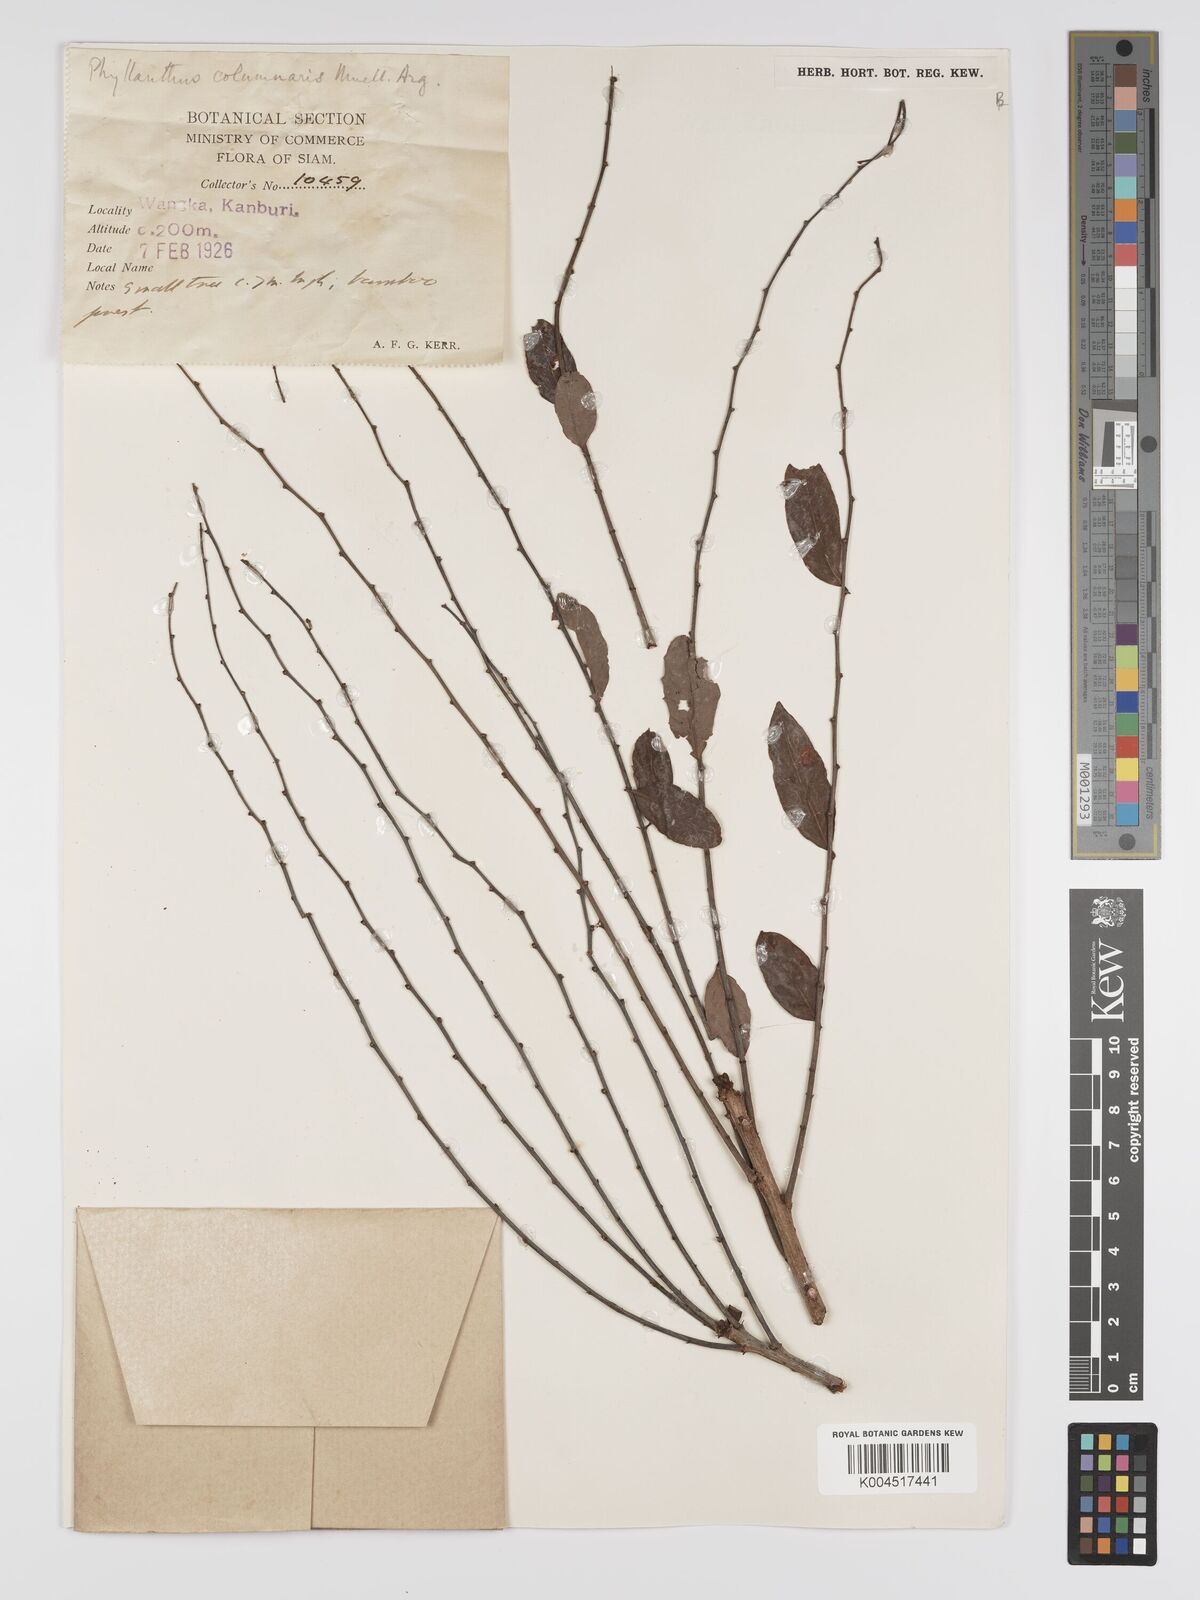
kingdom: Plantae
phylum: Tracheophyta
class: Magnoliopsida
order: Malpighiales
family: Phyllanthaceae
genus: Phyllanthus
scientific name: Phyllanthus
